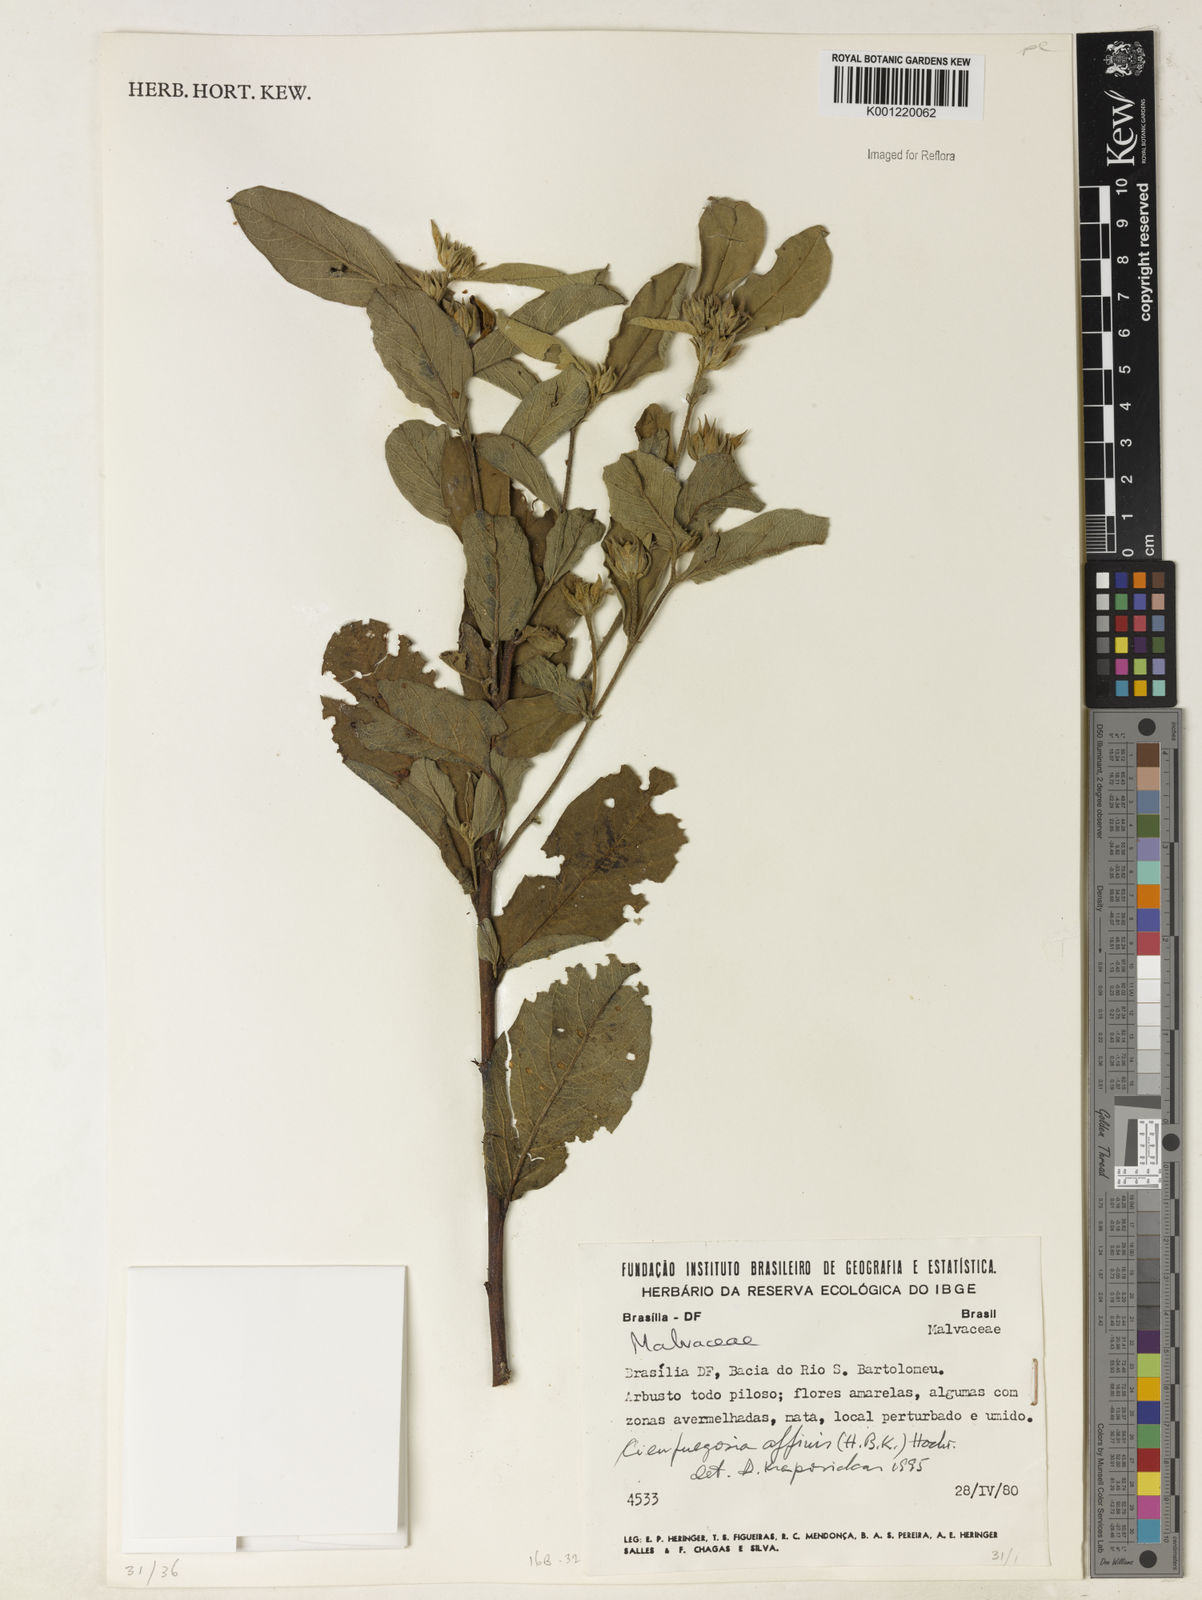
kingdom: Plantae
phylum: Tracheophyta
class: Magnoliopsida
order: Malvales
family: Malvaceae
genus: Cienfuegosia
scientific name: Cienfuegosia affinis
